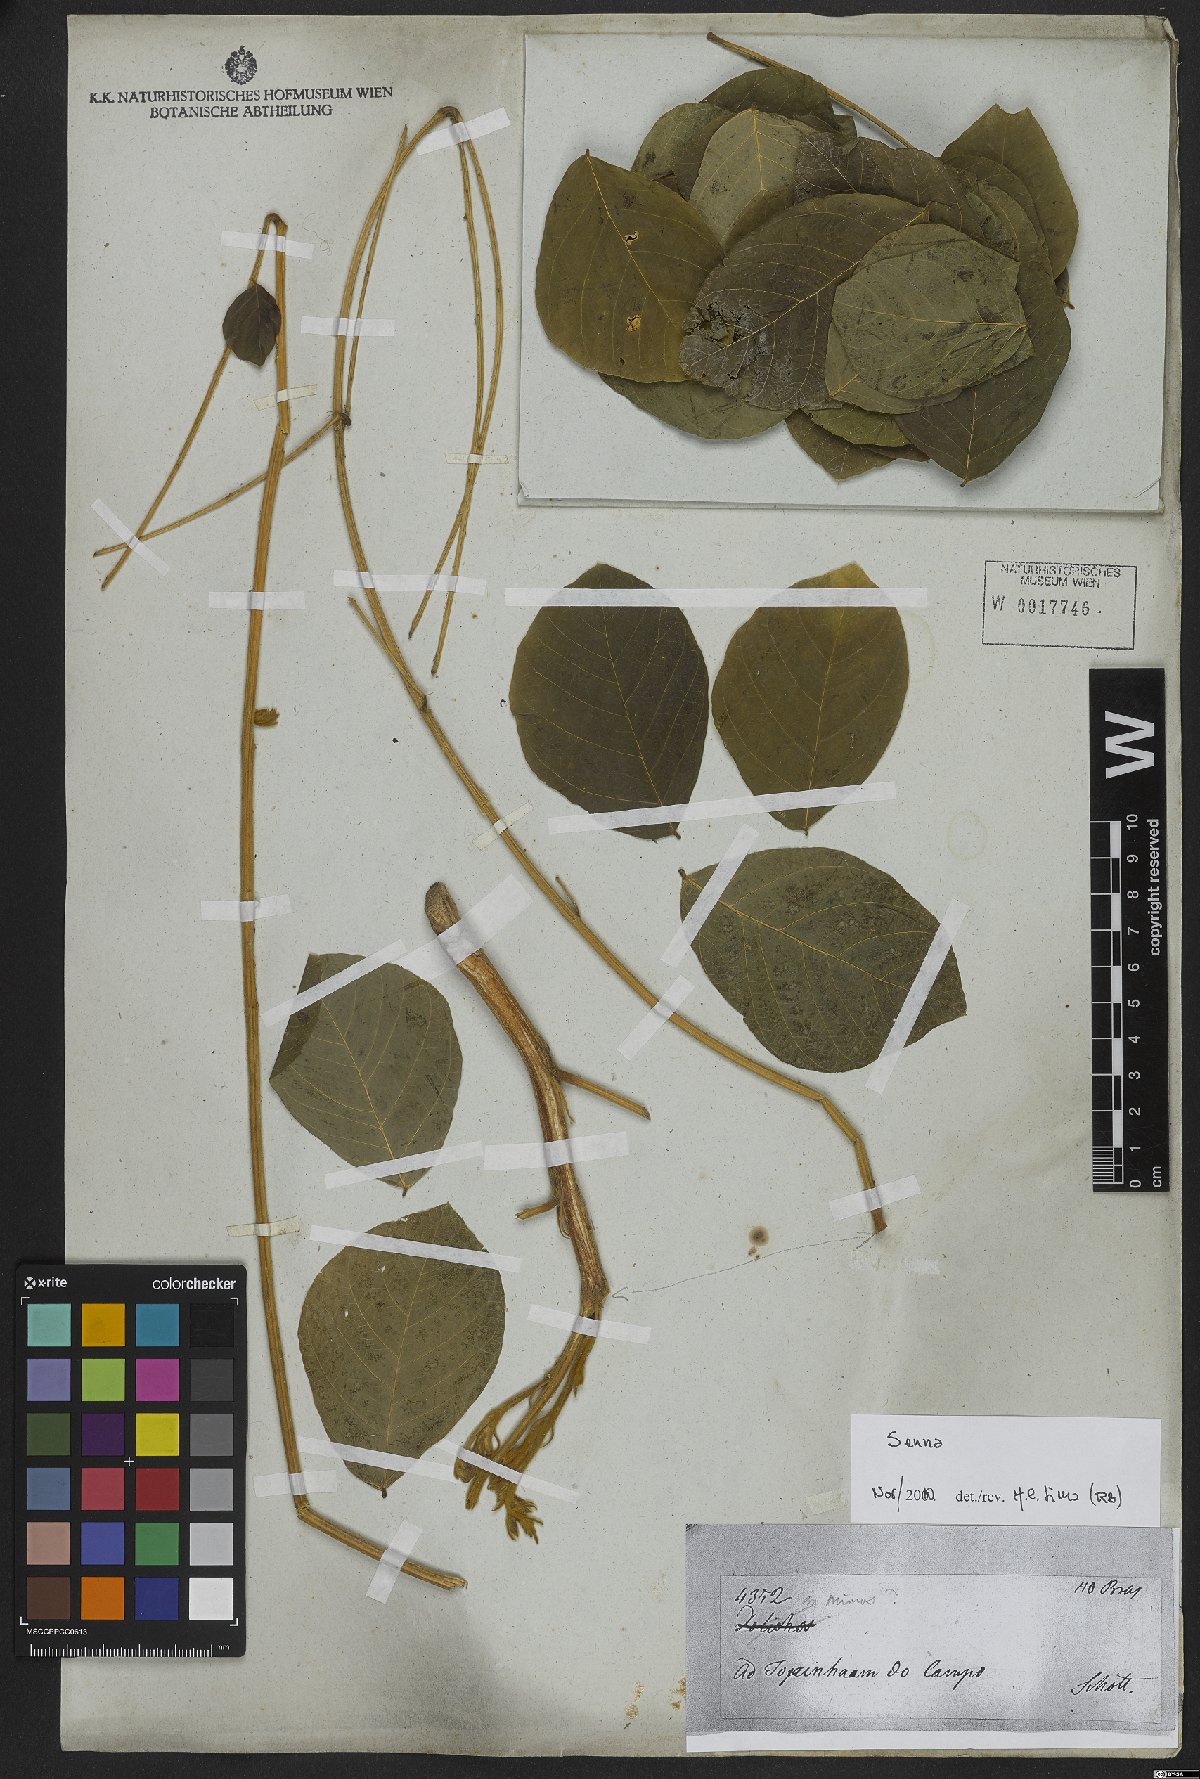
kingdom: Plantae
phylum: Tracheophyta
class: Magnoliopsida
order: Fabales
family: Fabaceae
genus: Senna
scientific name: Senna
